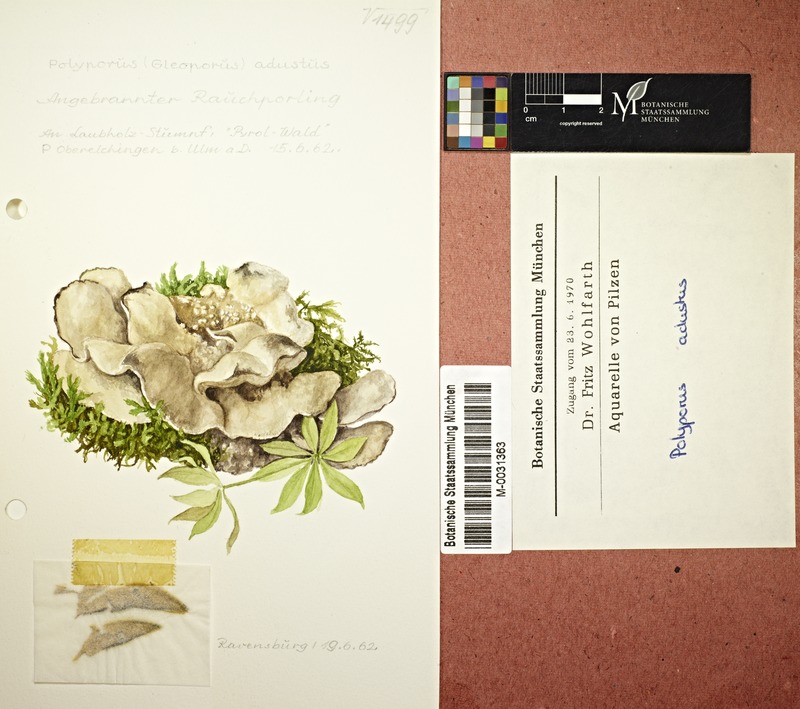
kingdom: Fungi
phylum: Basidiomycota
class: Agaricomycetes
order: Polyporales
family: Phanerochaetaceae
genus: Bjerkandera
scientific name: Bjerkandera adusta
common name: Smoky bracket
